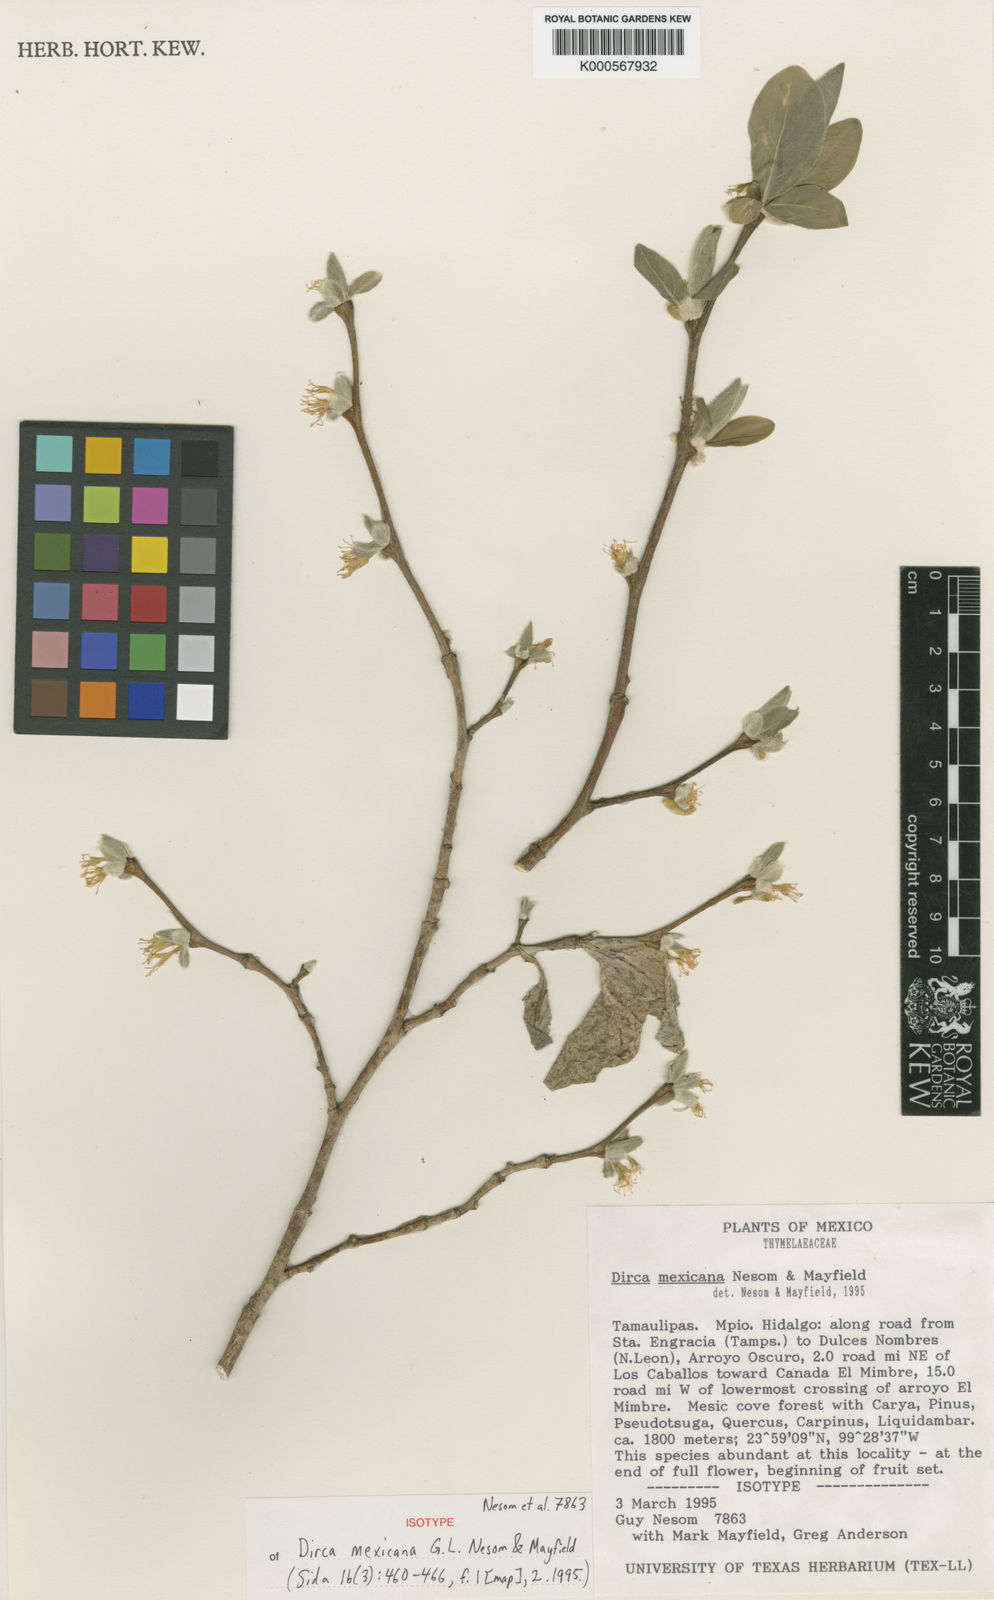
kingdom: Plantae
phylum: Tracheophyta
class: Magnoliopsida
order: Malvales
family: Thymelaeaceae
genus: Dirca
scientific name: Dirca mexicana
